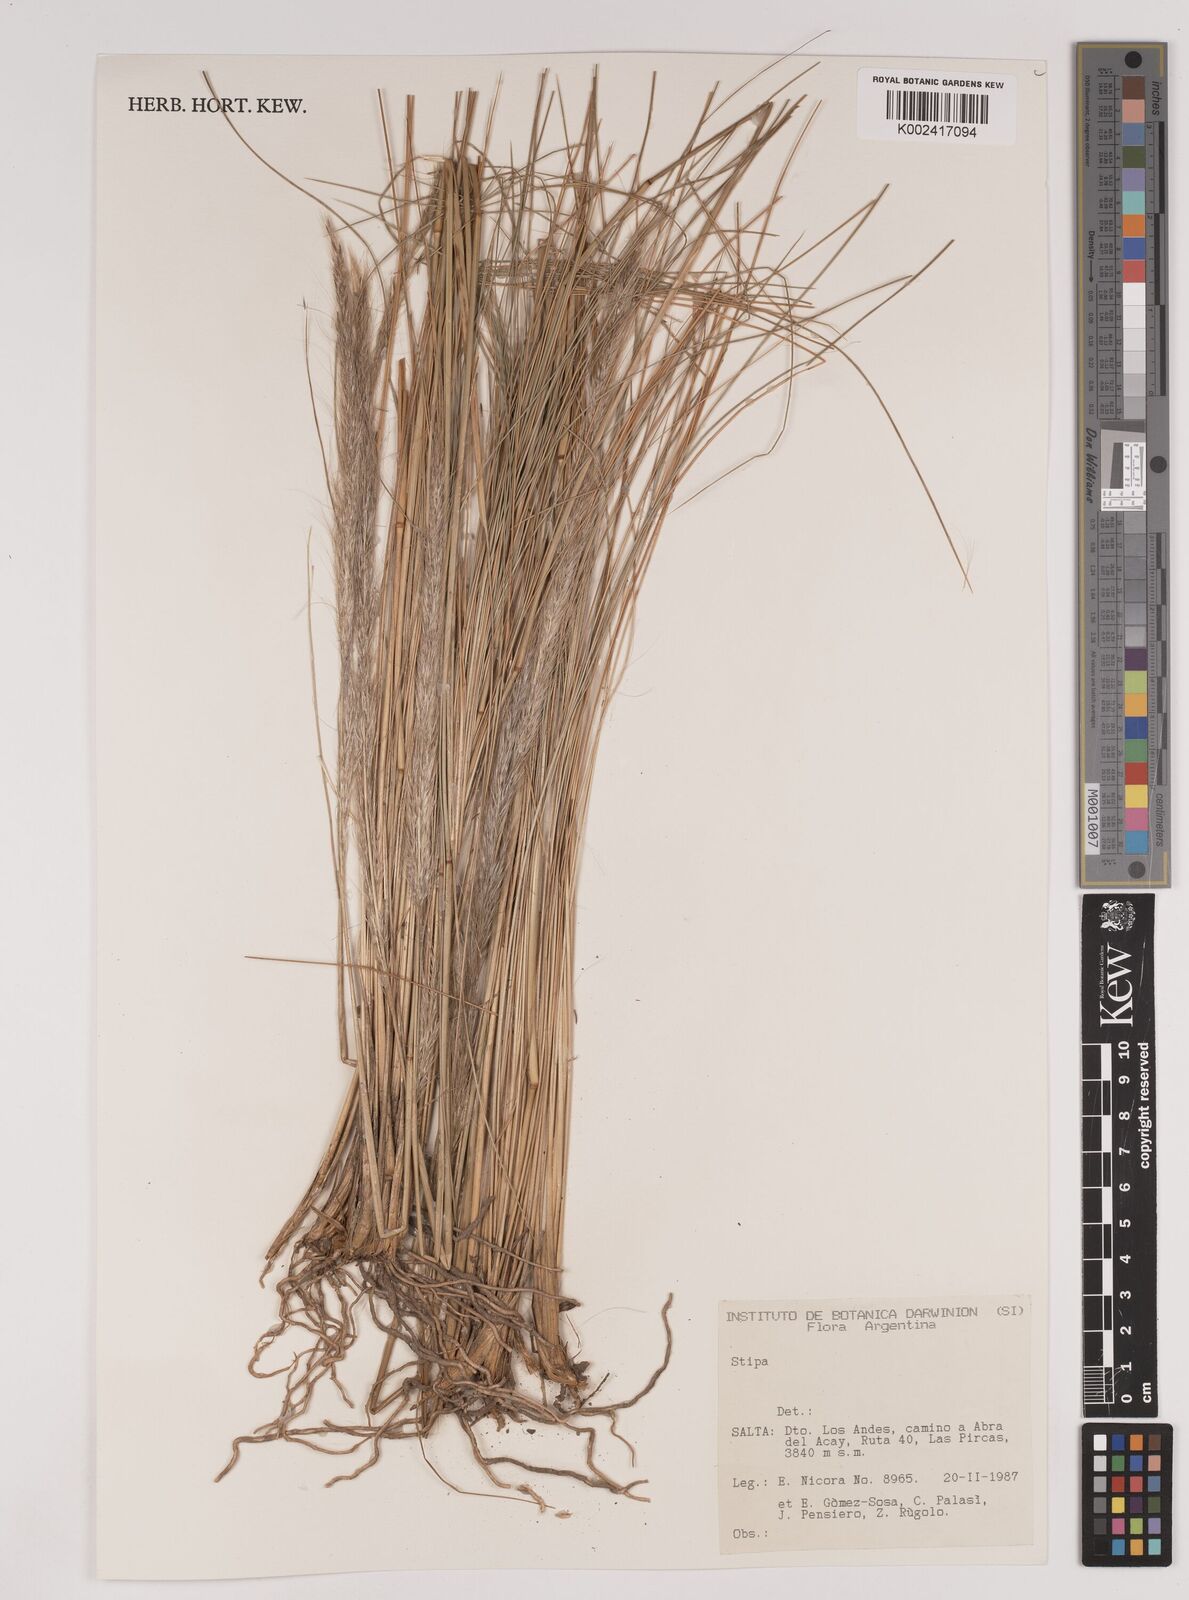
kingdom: Plantae
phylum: Tracheophyta
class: Liliopsida
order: Poales
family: Poaceae
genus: Stipa
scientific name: Stipa
